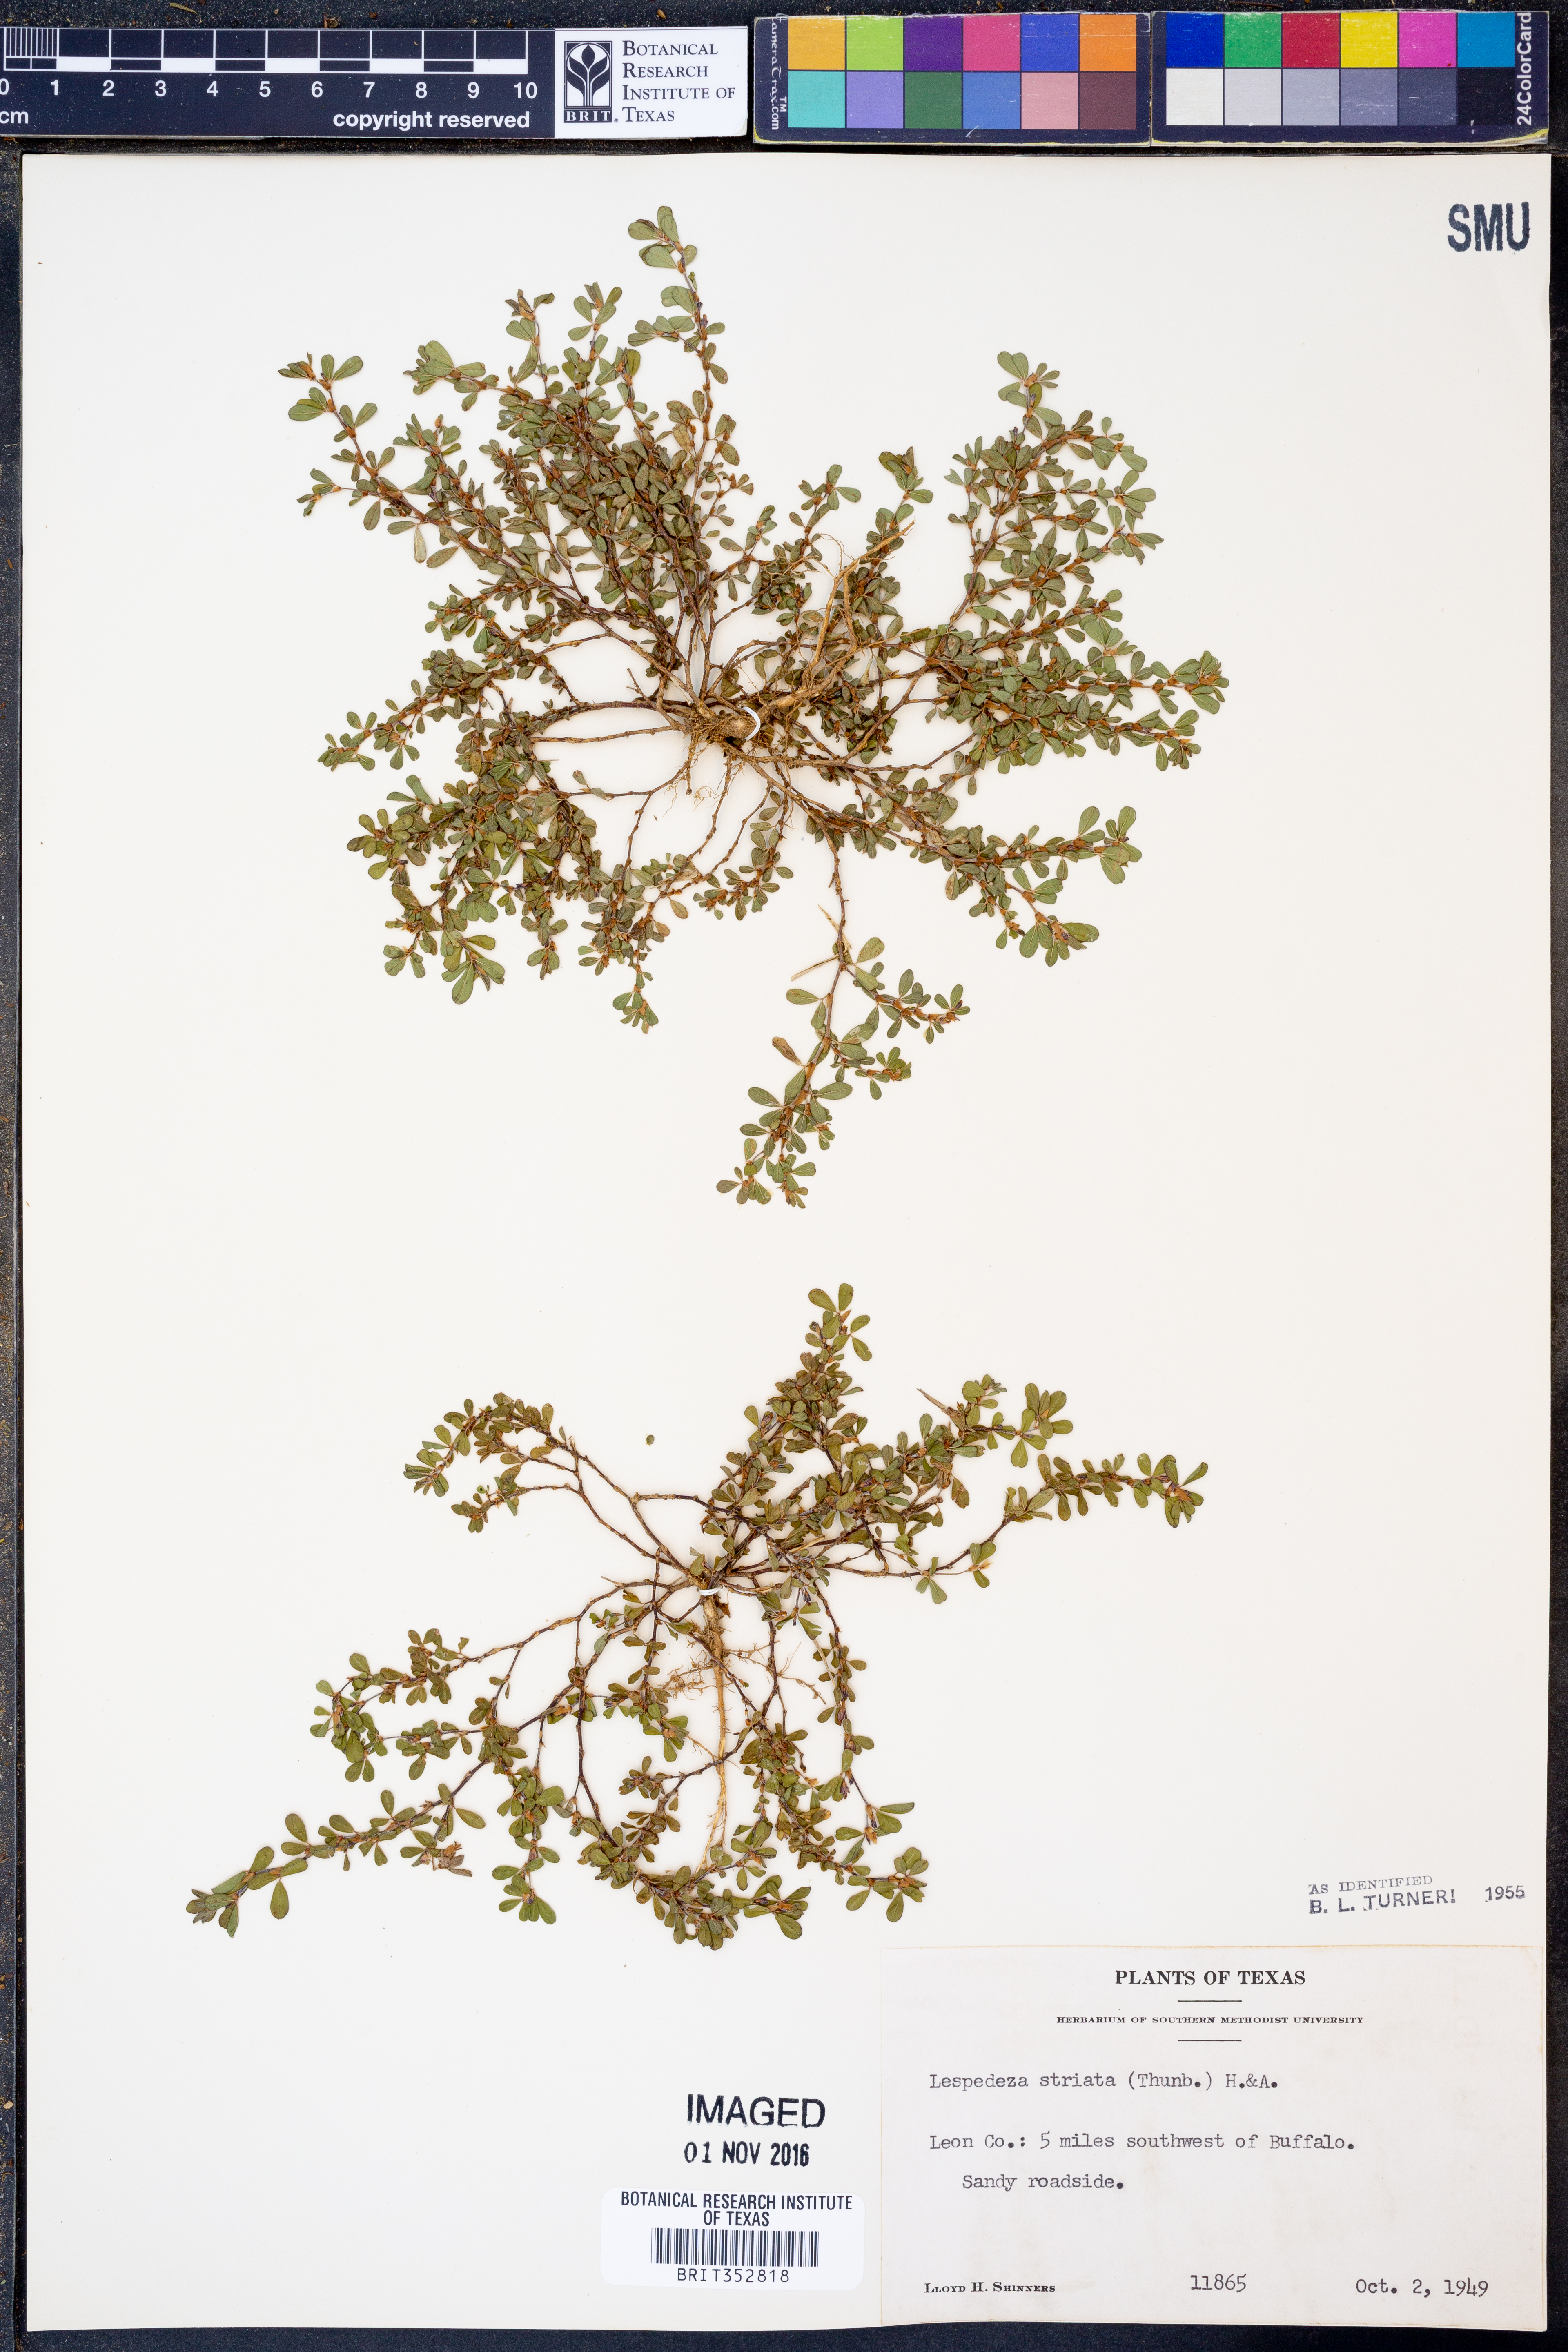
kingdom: Plantae
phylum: Tracheophyta
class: Magnoliopsida
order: Fabales
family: Fabaceae
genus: Kummerowia
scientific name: Kummerowia striata
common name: Japanese clover
